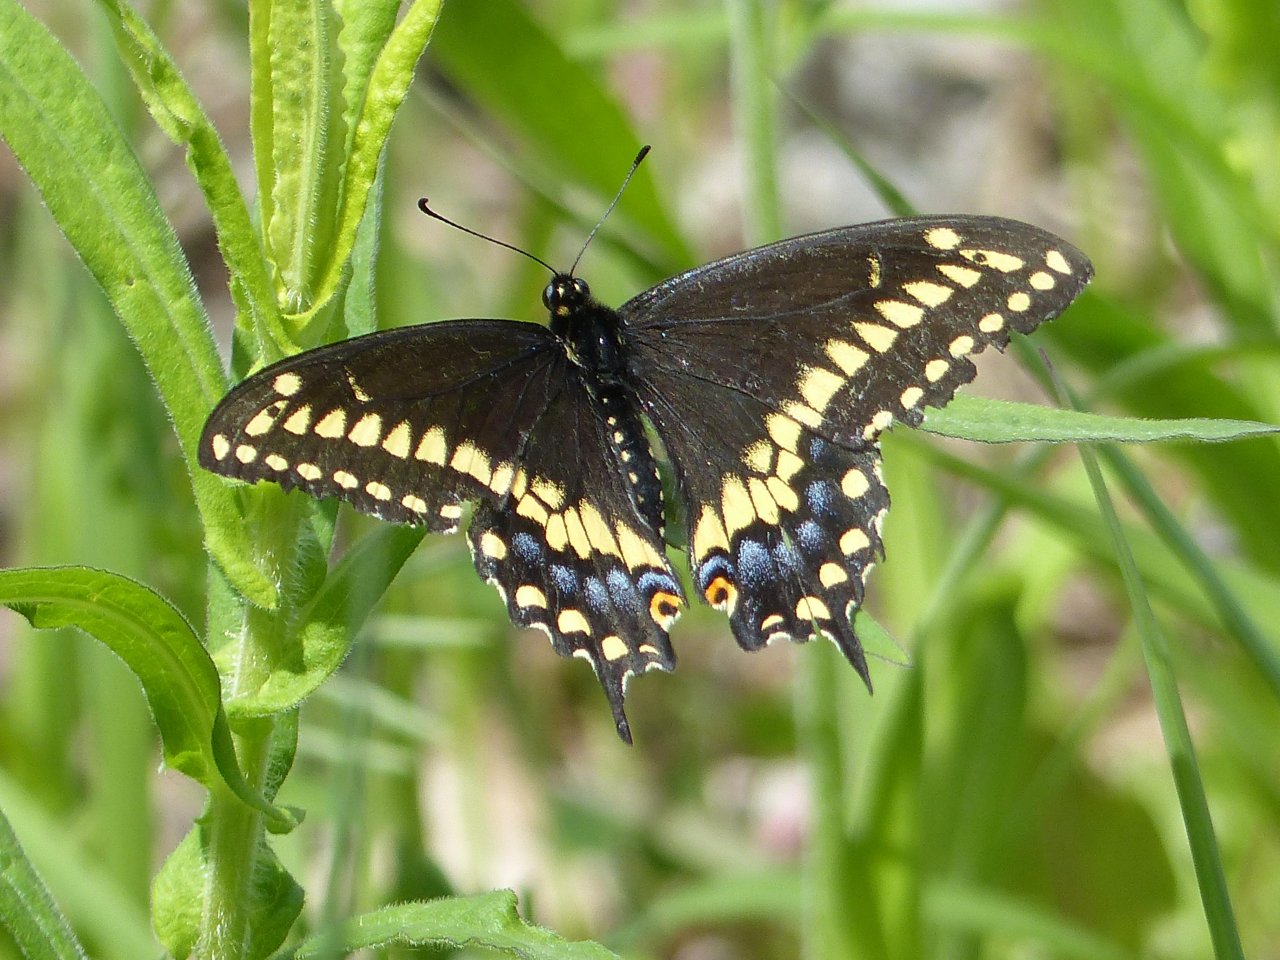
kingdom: Animalia
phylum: Arthropoda
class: Insecta
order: Lepidoptera
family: Papilionidae
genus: Papilio
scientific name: Papilio polyxenes
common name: Black Swallowtail
